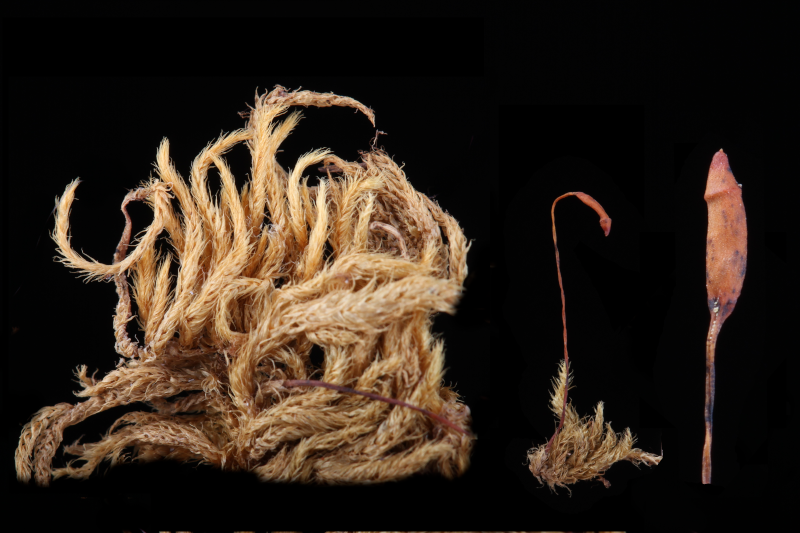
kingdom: Plantae
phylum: Bryophyta
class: Bryopsida
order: Hypnales
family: Brachytheciaceae
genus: Brachythecium
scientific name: Brachythecium buchananii
